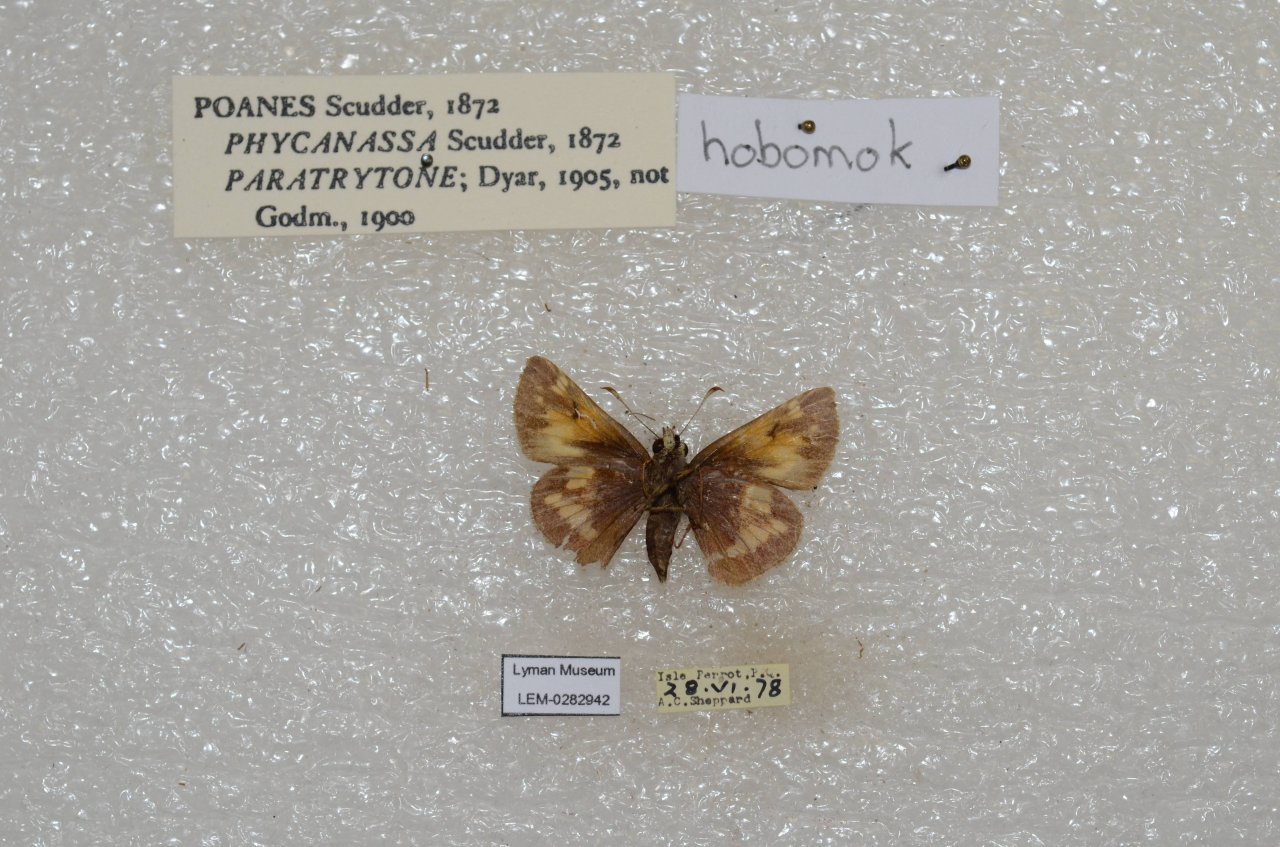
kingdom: Animalia
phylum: Arthropoda
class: Insecta
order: Lepidoptera
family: Hesperiidae
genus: Lon
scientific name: Lon hobomok
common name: Hobomok Skipper
